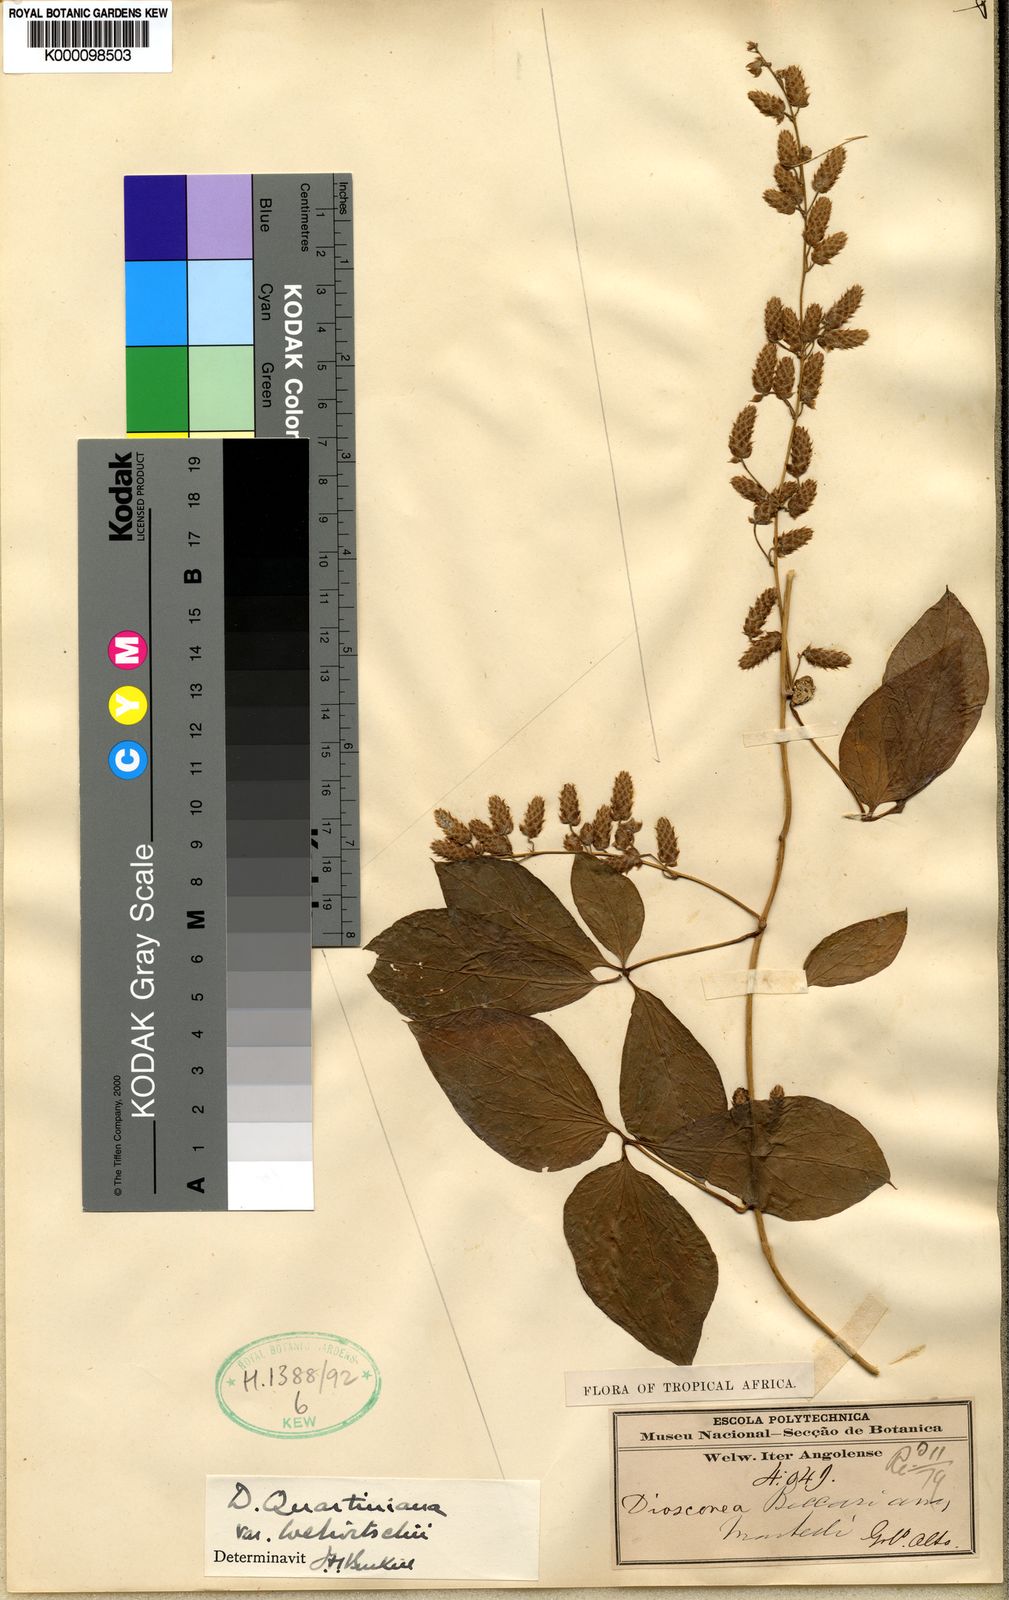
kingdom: Plantae
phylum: Tracheophyta
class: Liliopsida
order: Dioscoreales
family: Dioscoreaceae
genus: Dioscorea
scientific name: Dioscorea quartiniana
